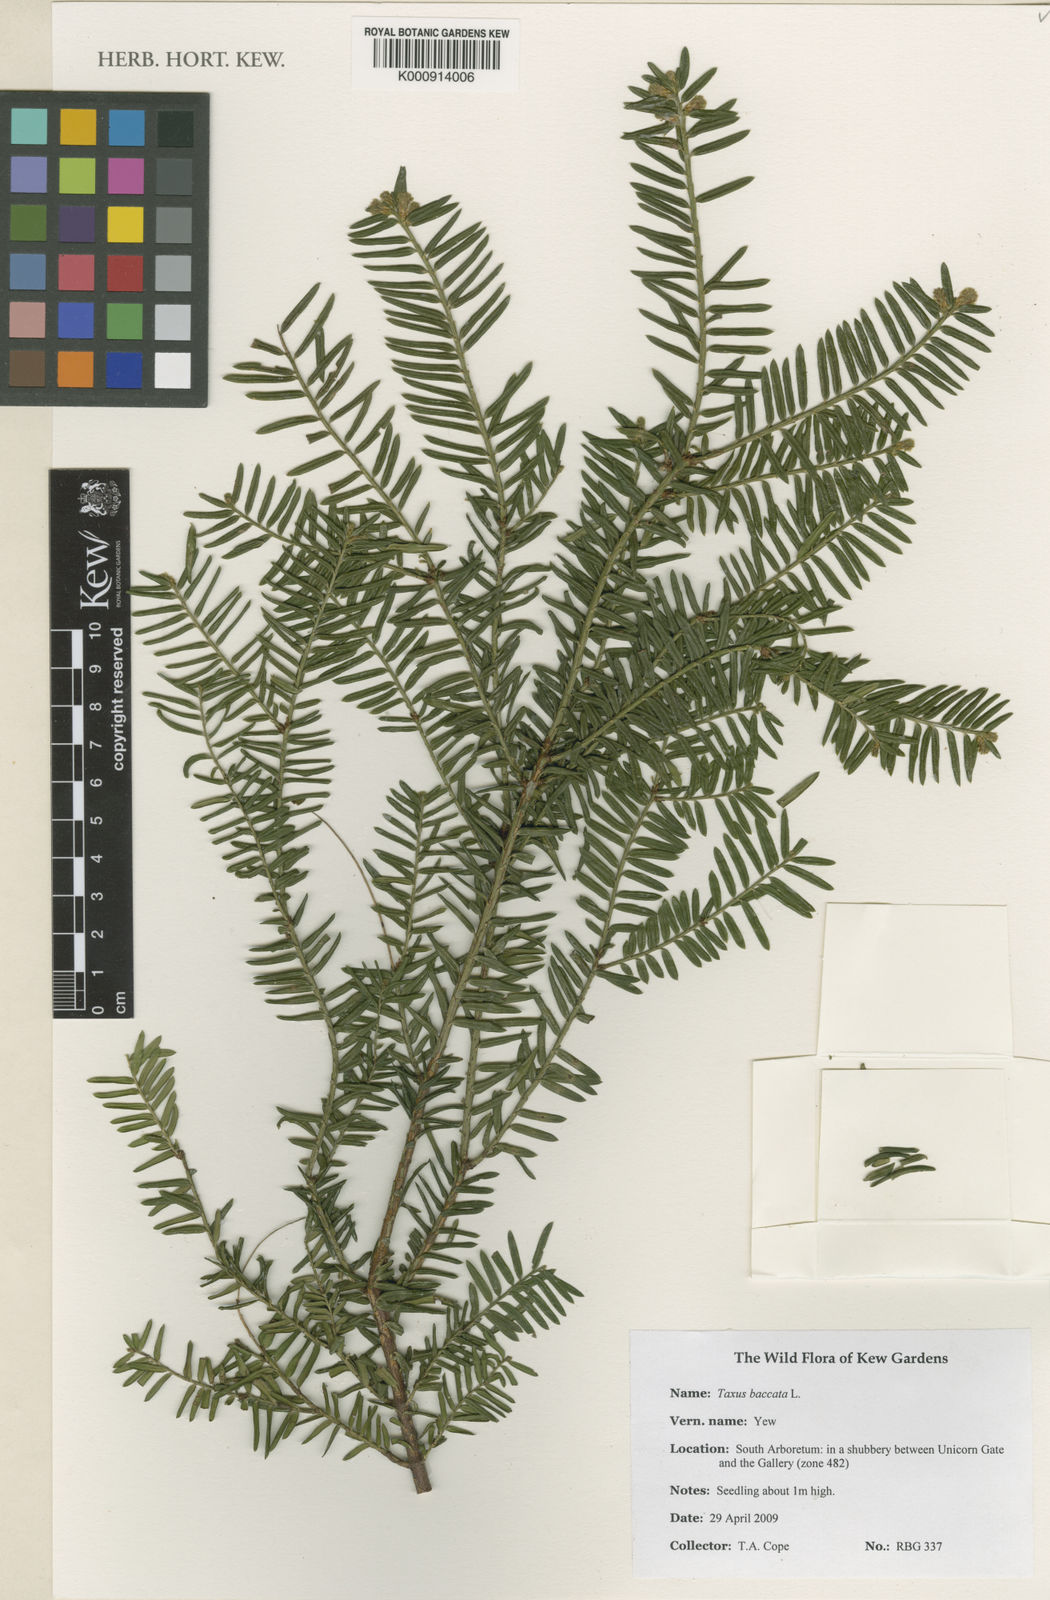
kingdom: Plantae
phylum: Tracheophyta
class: Pinopsida
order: Pinales
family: Taxaceae
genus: Taxus
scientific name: Taxus baccata
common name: Yew
